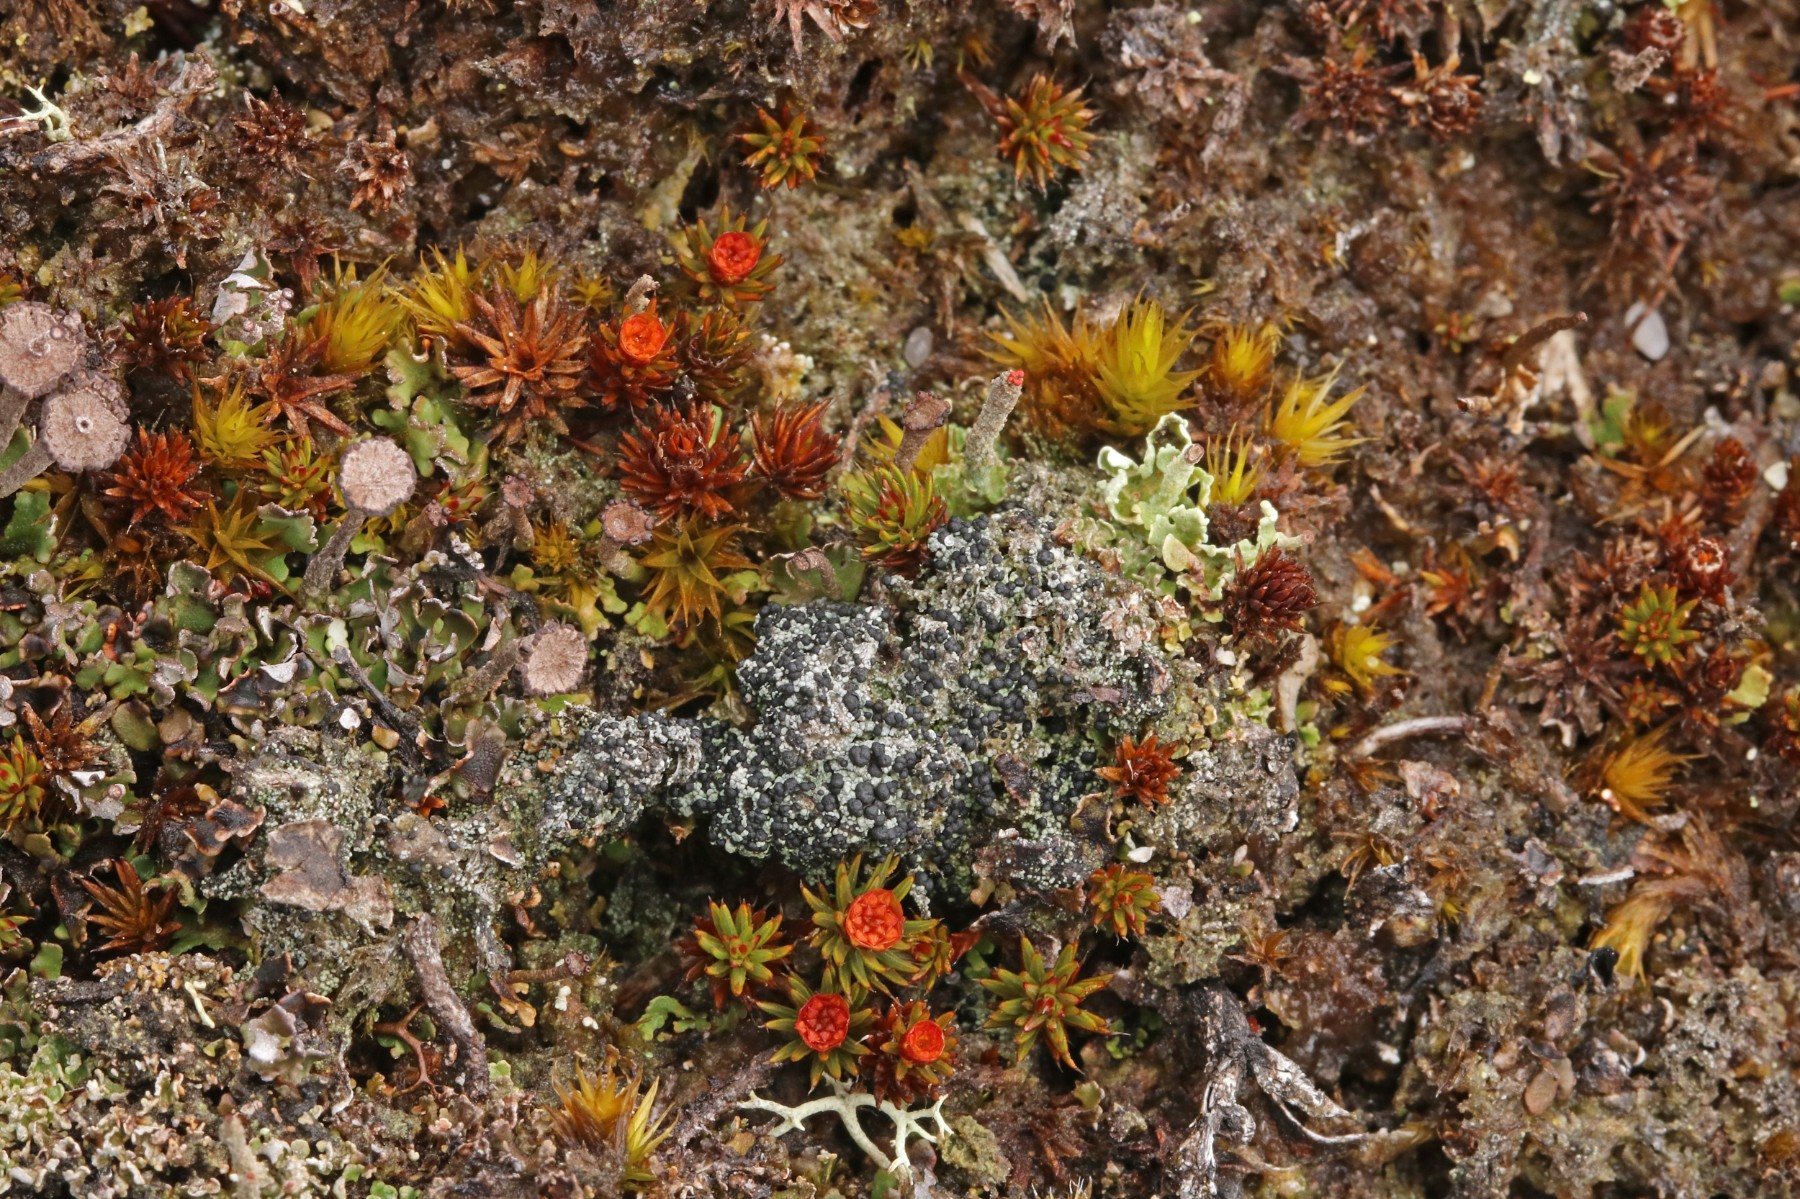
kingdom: Fungi
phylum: Ascomycota
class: Lecanoromycetes
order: Lecanorales
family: Byssolomataceae
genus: Micarea
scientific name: Micarea lignaria
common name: tørve-knaplav
